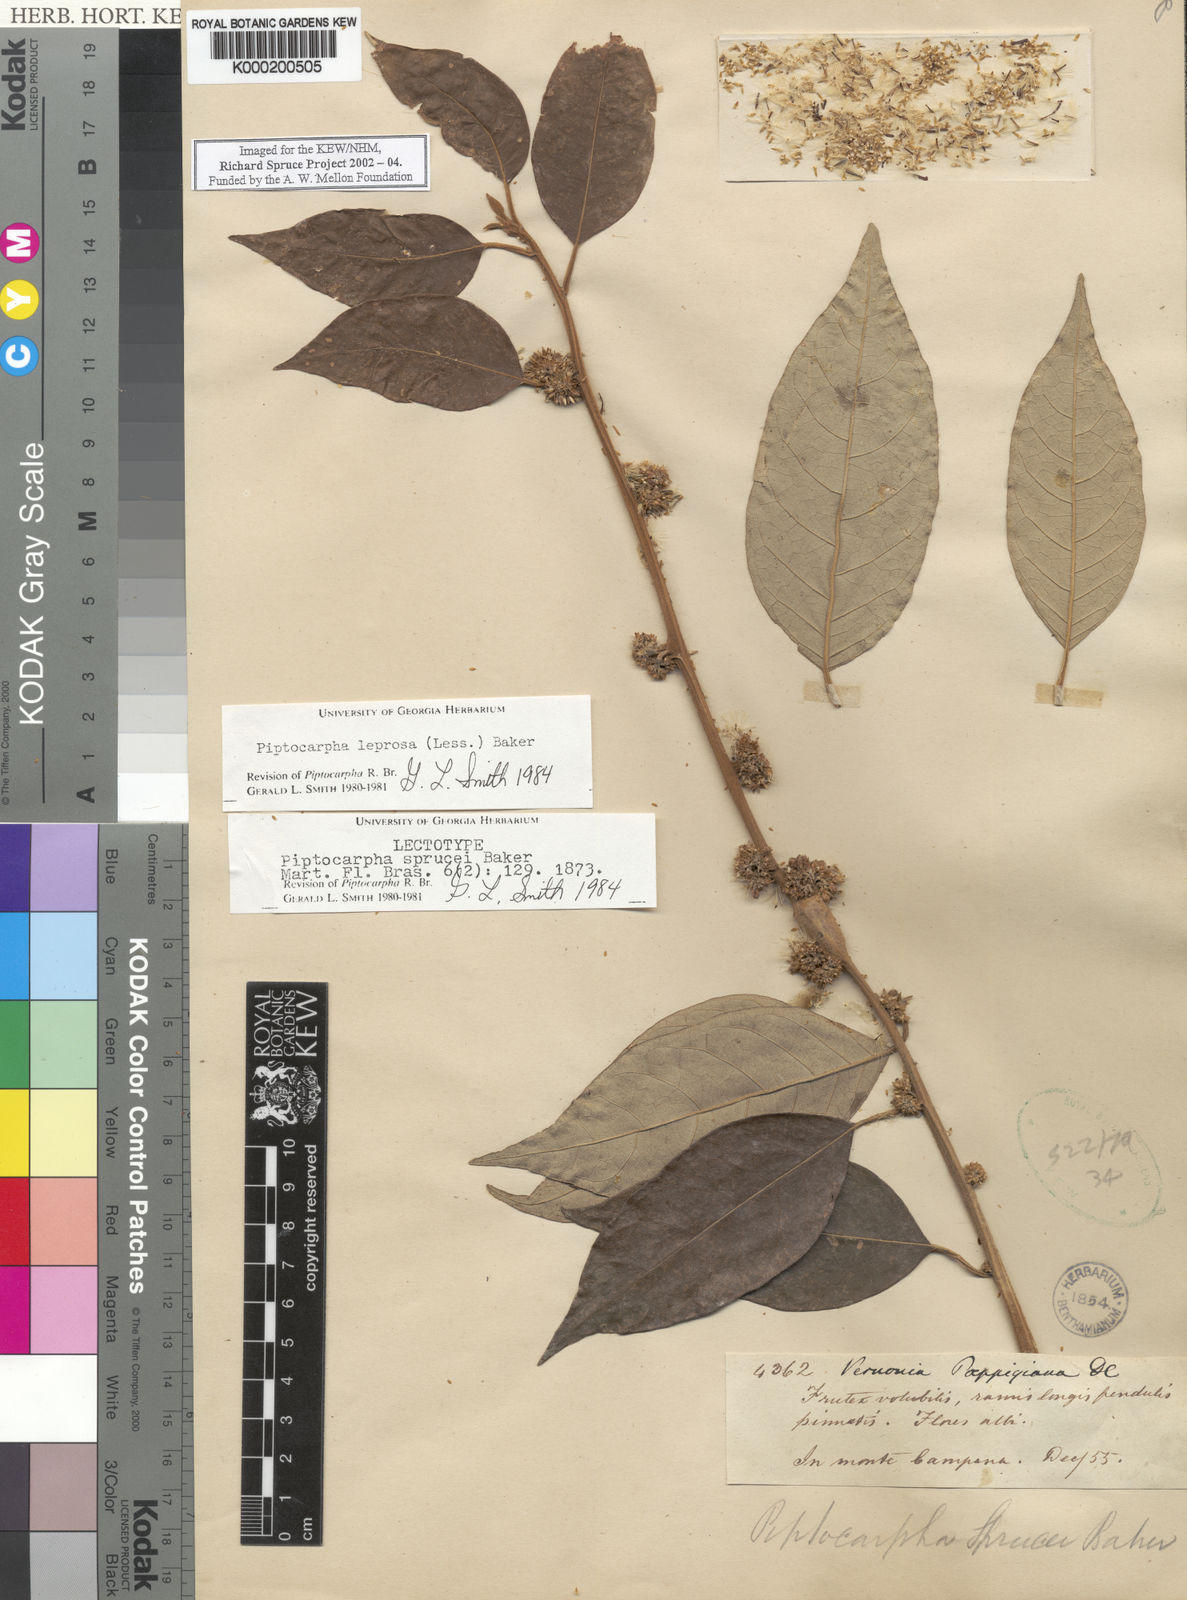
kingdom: Plantae
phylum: Tracheophyta
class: Magnoliopsida
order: Asterales
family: Asteraceae
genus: Piptocarpha
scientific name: Piptocarpha leprosa
